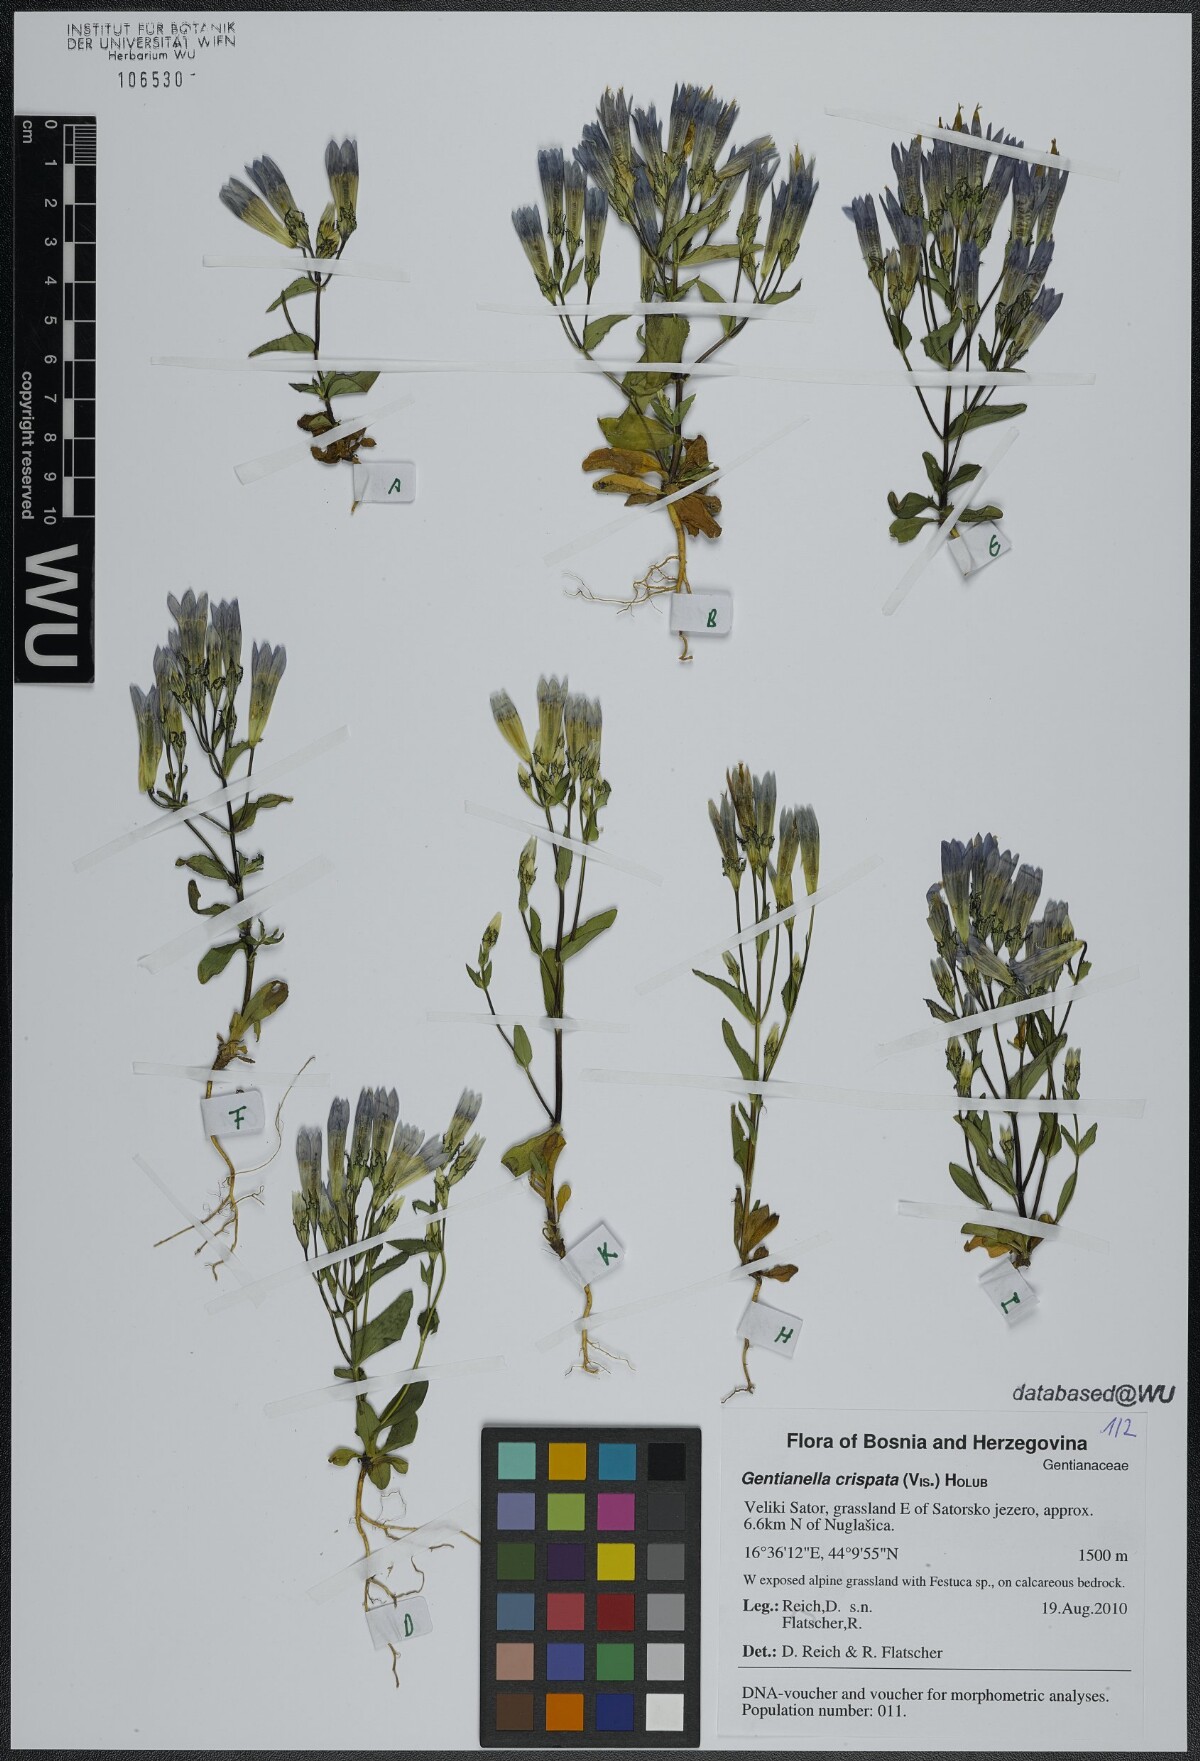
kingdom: Plantae
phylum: Tracheophyta
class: Magnoliopsida
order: Gentianales
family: Gentianaceae
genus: Gentianella
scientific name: Gentianella crispata
